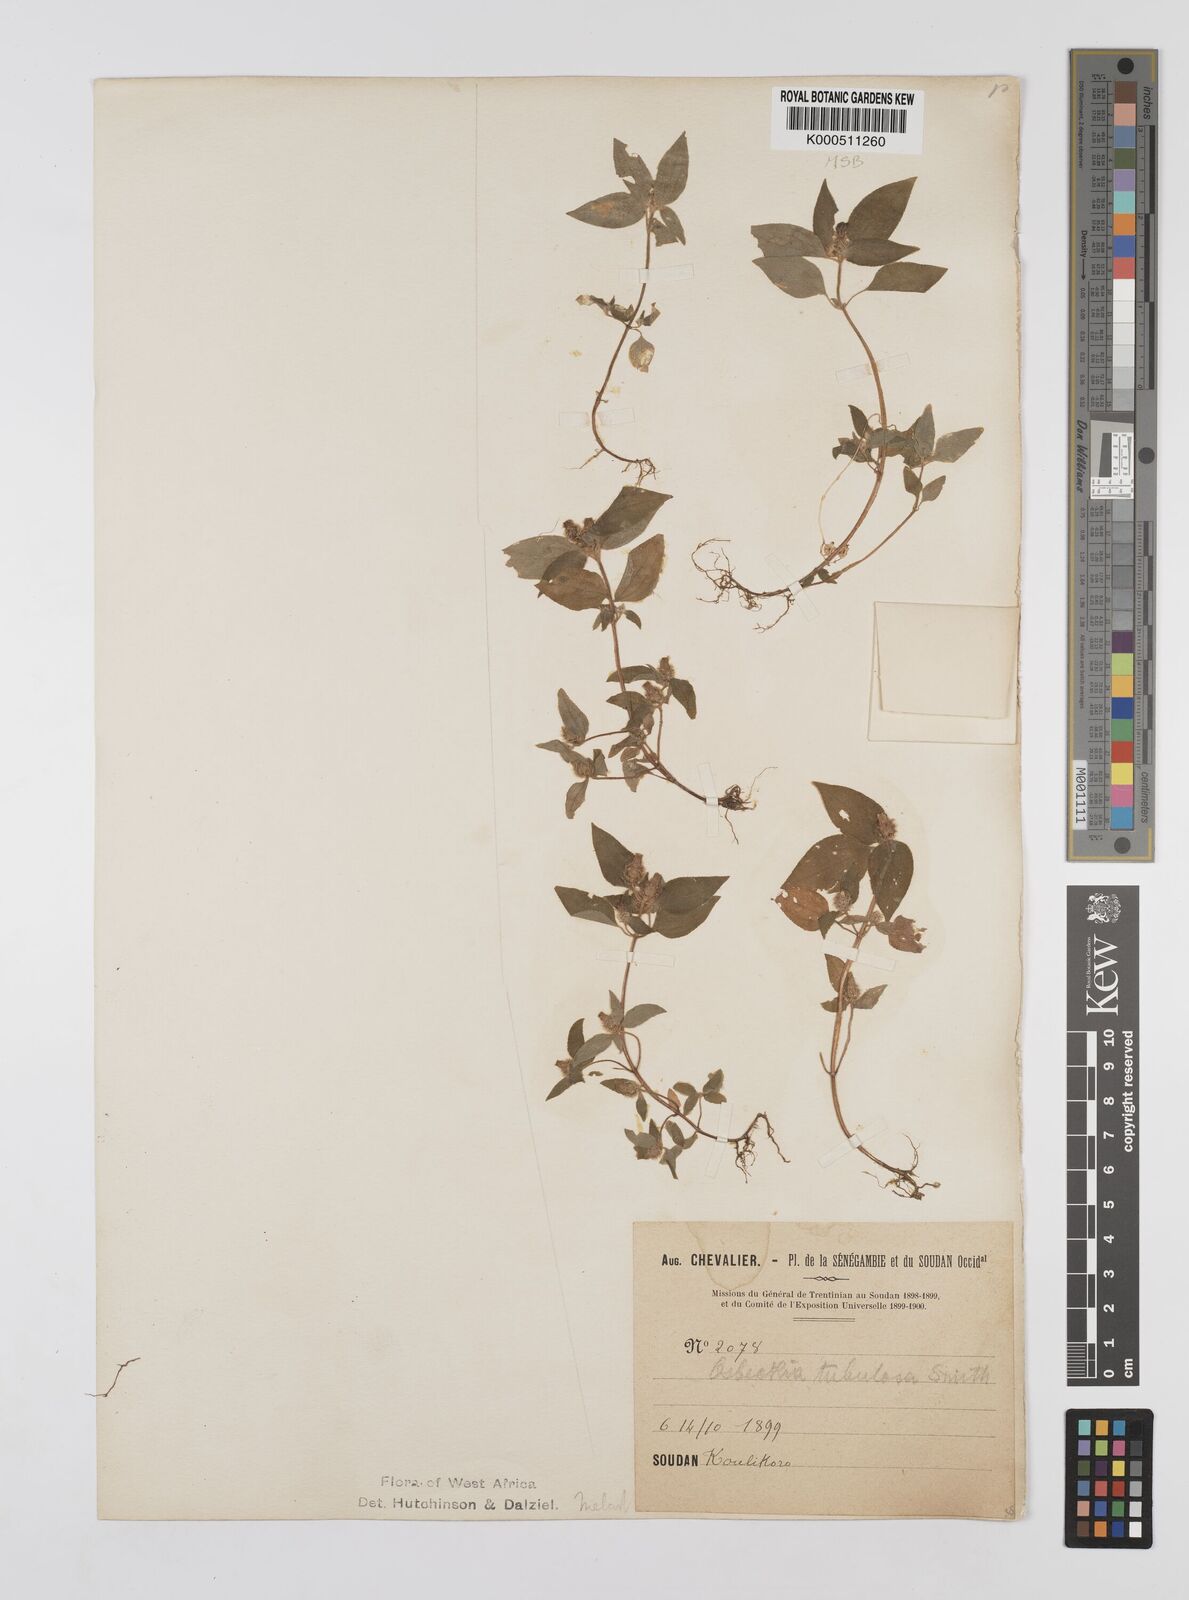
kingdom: Plantae
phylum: Tracheophyta
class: Magnoliopsida
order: Myrtales
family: Melastomataceae
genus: Derosiphia
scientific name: Derosiphia tubulosa
